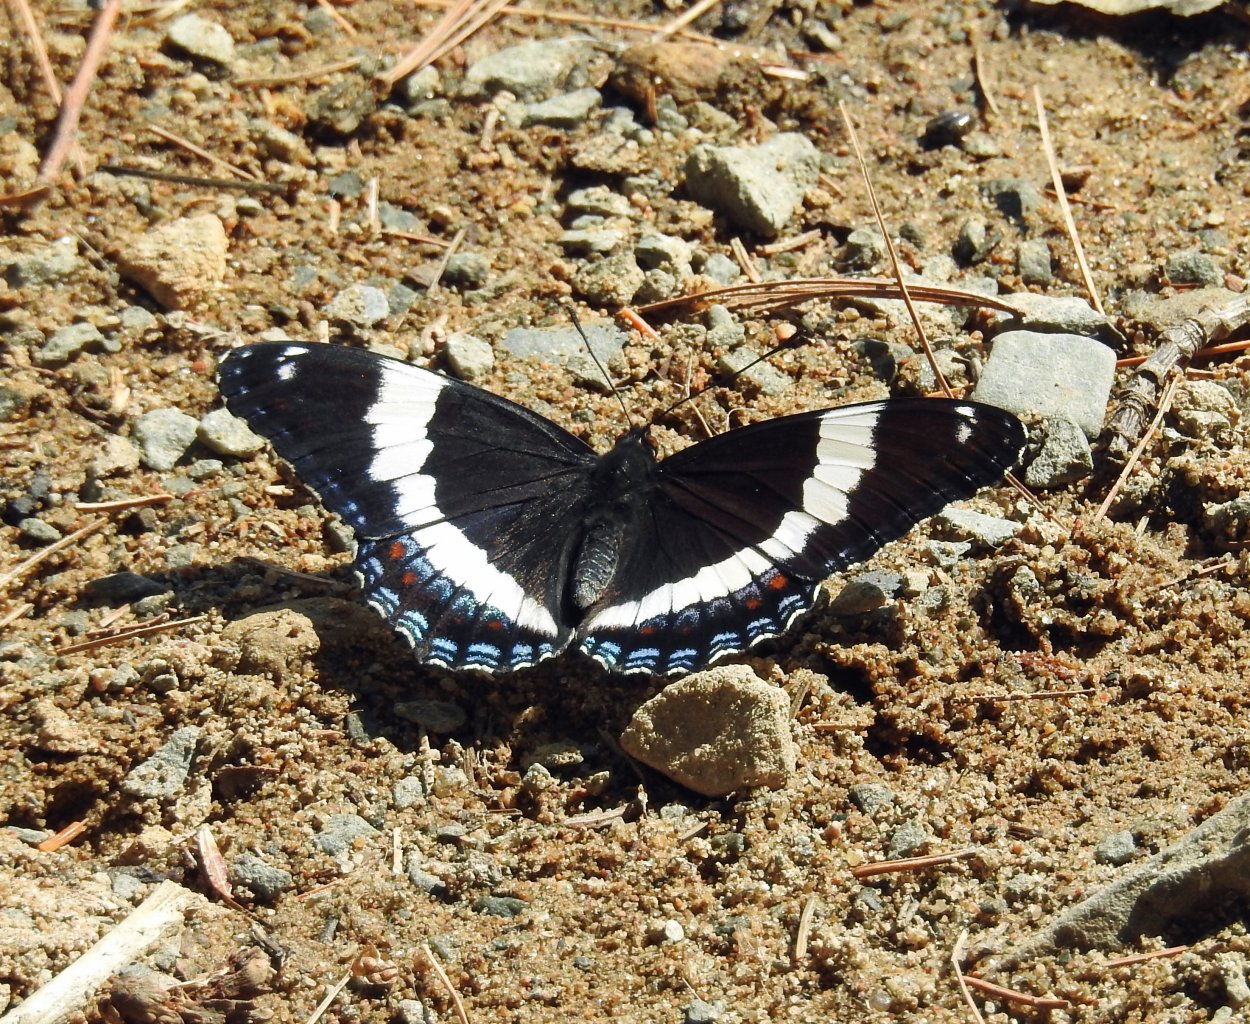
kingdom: Animalia
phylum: Arthropoda
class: Insecta
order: Lepidoptera
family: Nymphalidae
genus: Limenitis
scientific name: Limenitis arthemis
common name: Red-spotted Admiral
